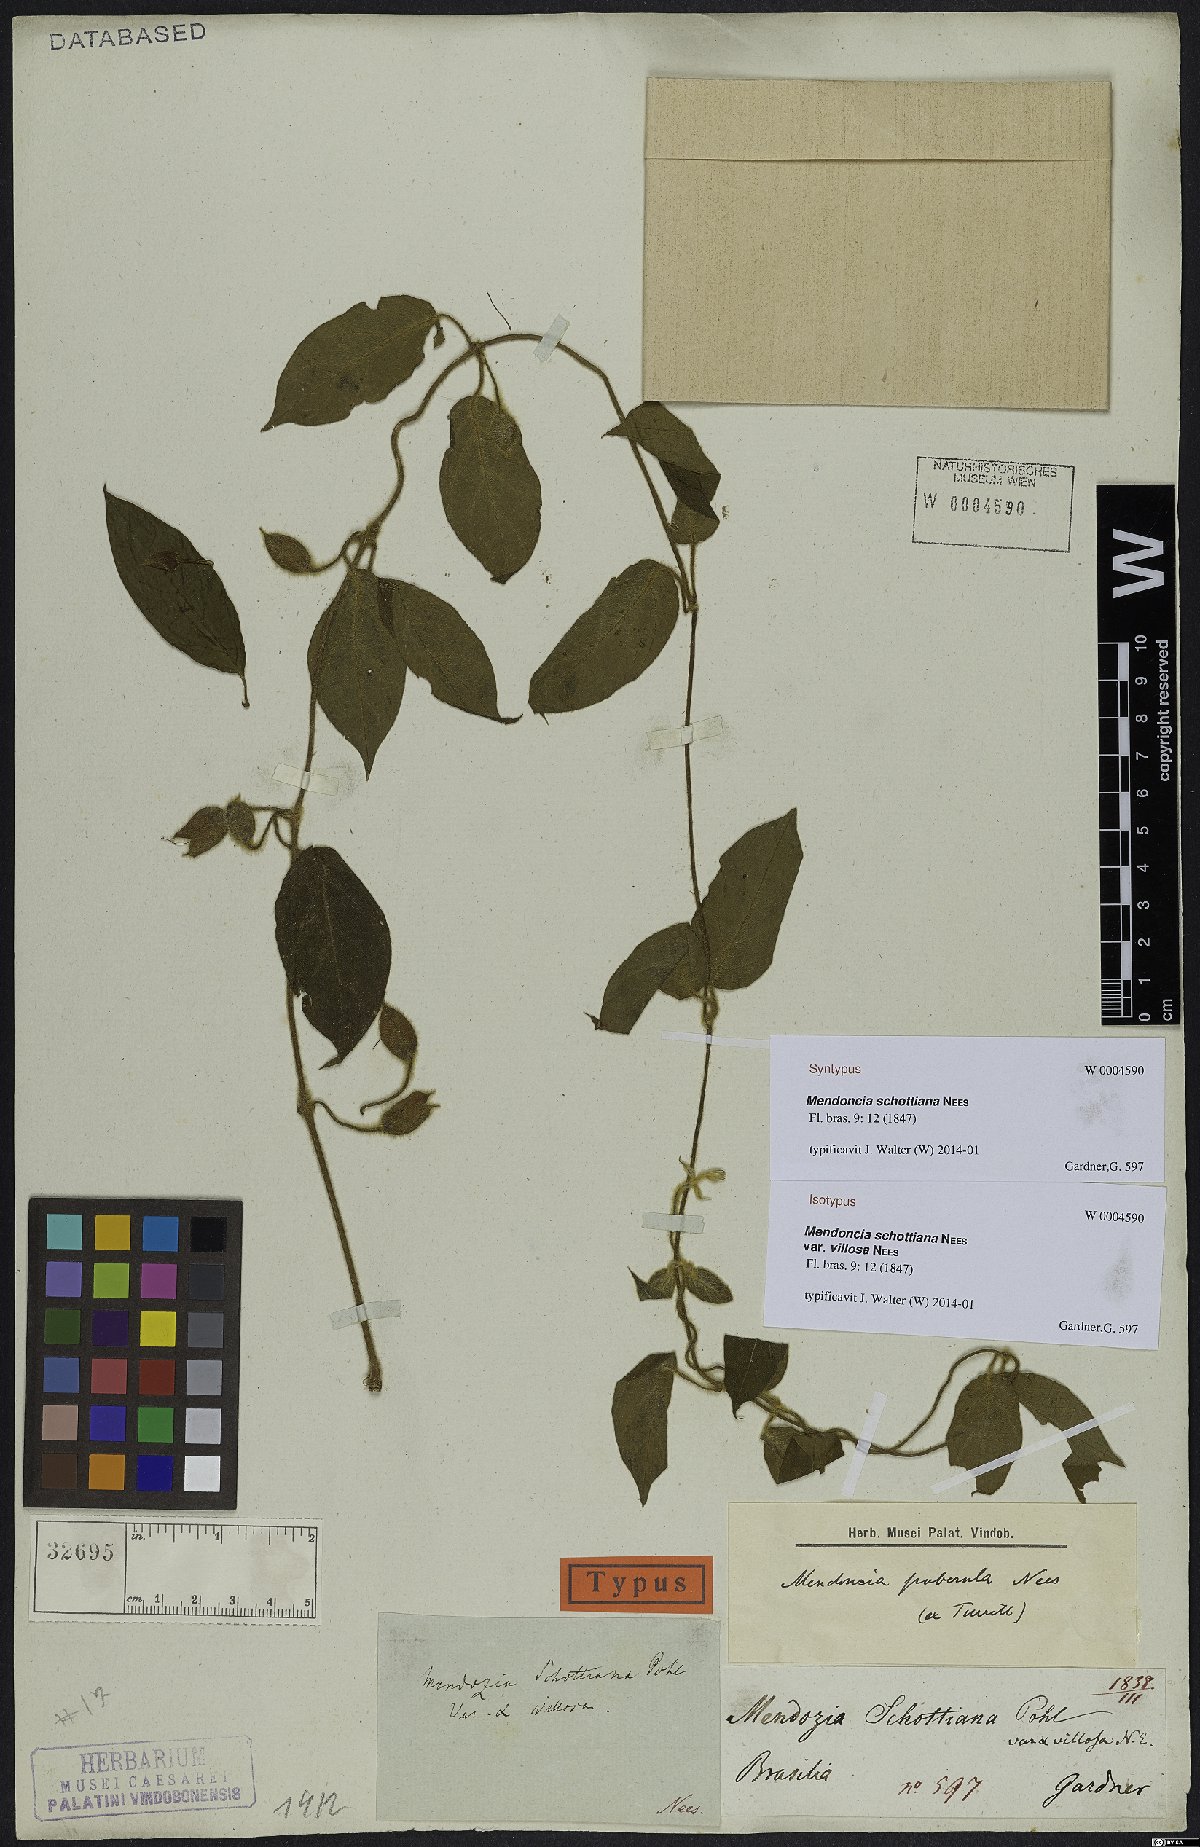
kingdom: Plantae
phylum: Tracheophyta
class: Magnoliopsida
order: Lamiales
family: Acanthaceae
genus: Mendoncia
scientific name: Mendoncia schottiana
